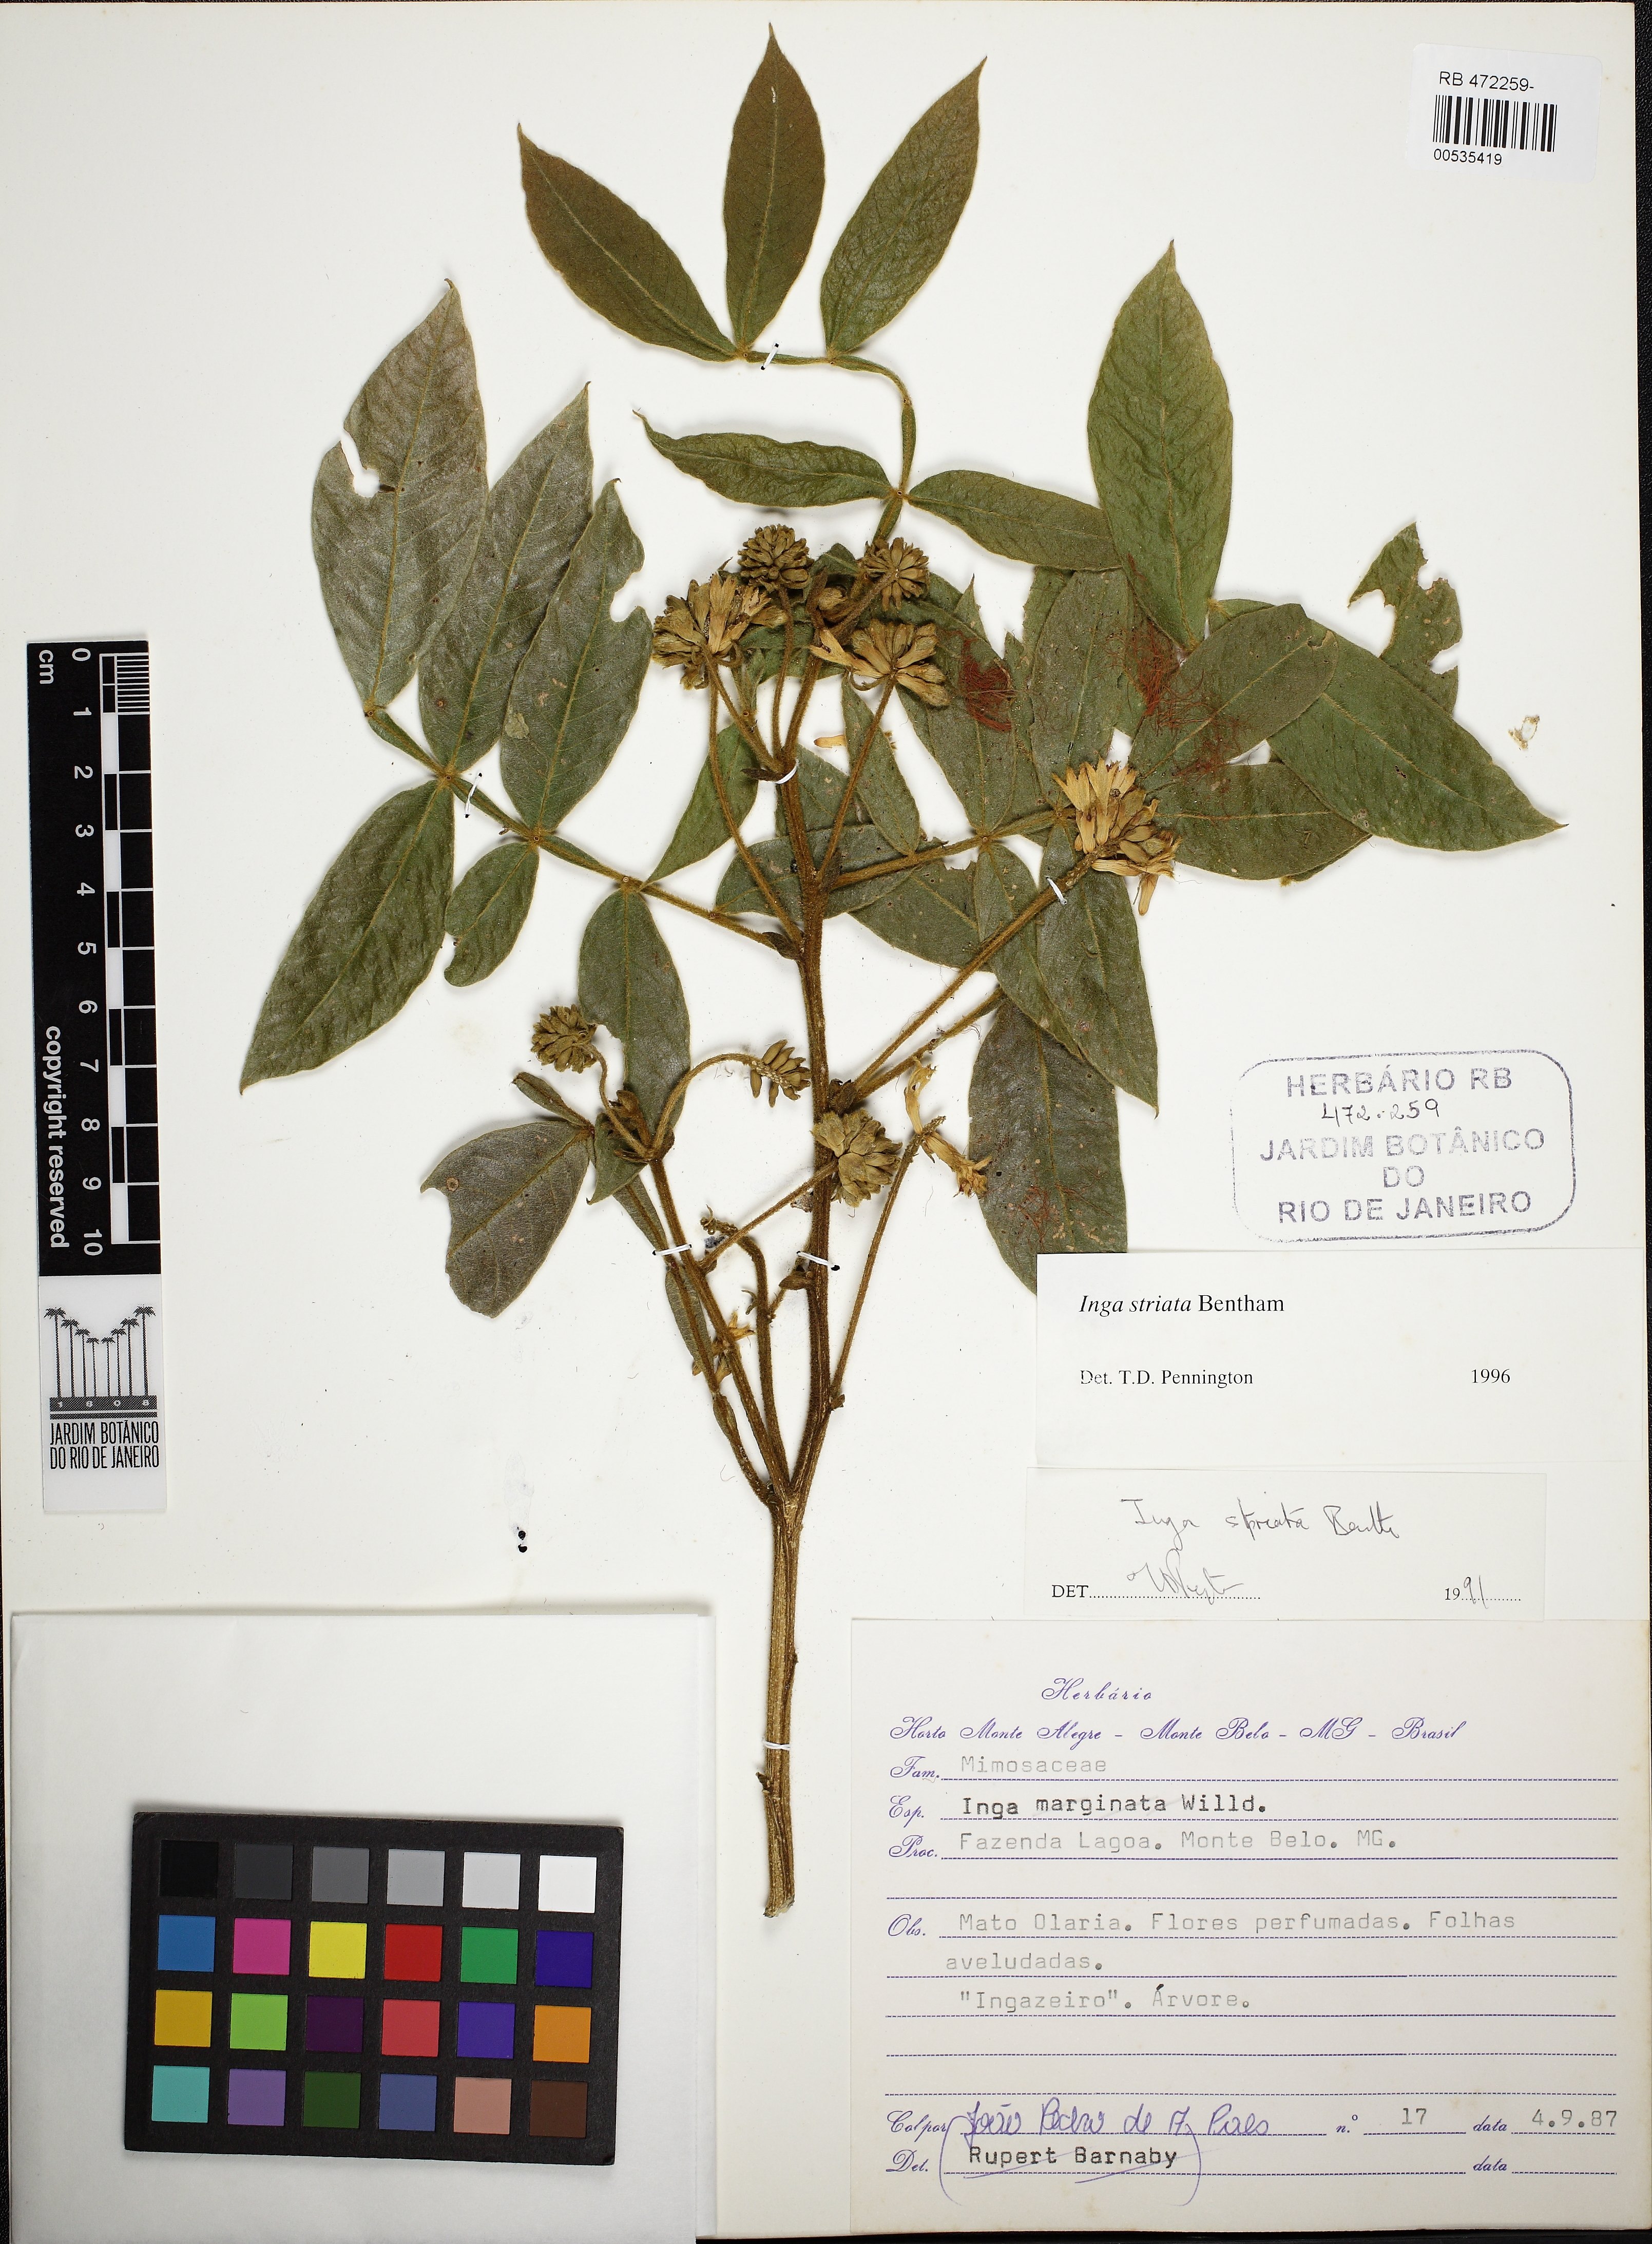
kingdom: Plantae
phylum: Tracheophyta
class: Magnoliopsida
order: Fabales
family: Fabaceae
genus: Inga
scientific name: Inga striata
